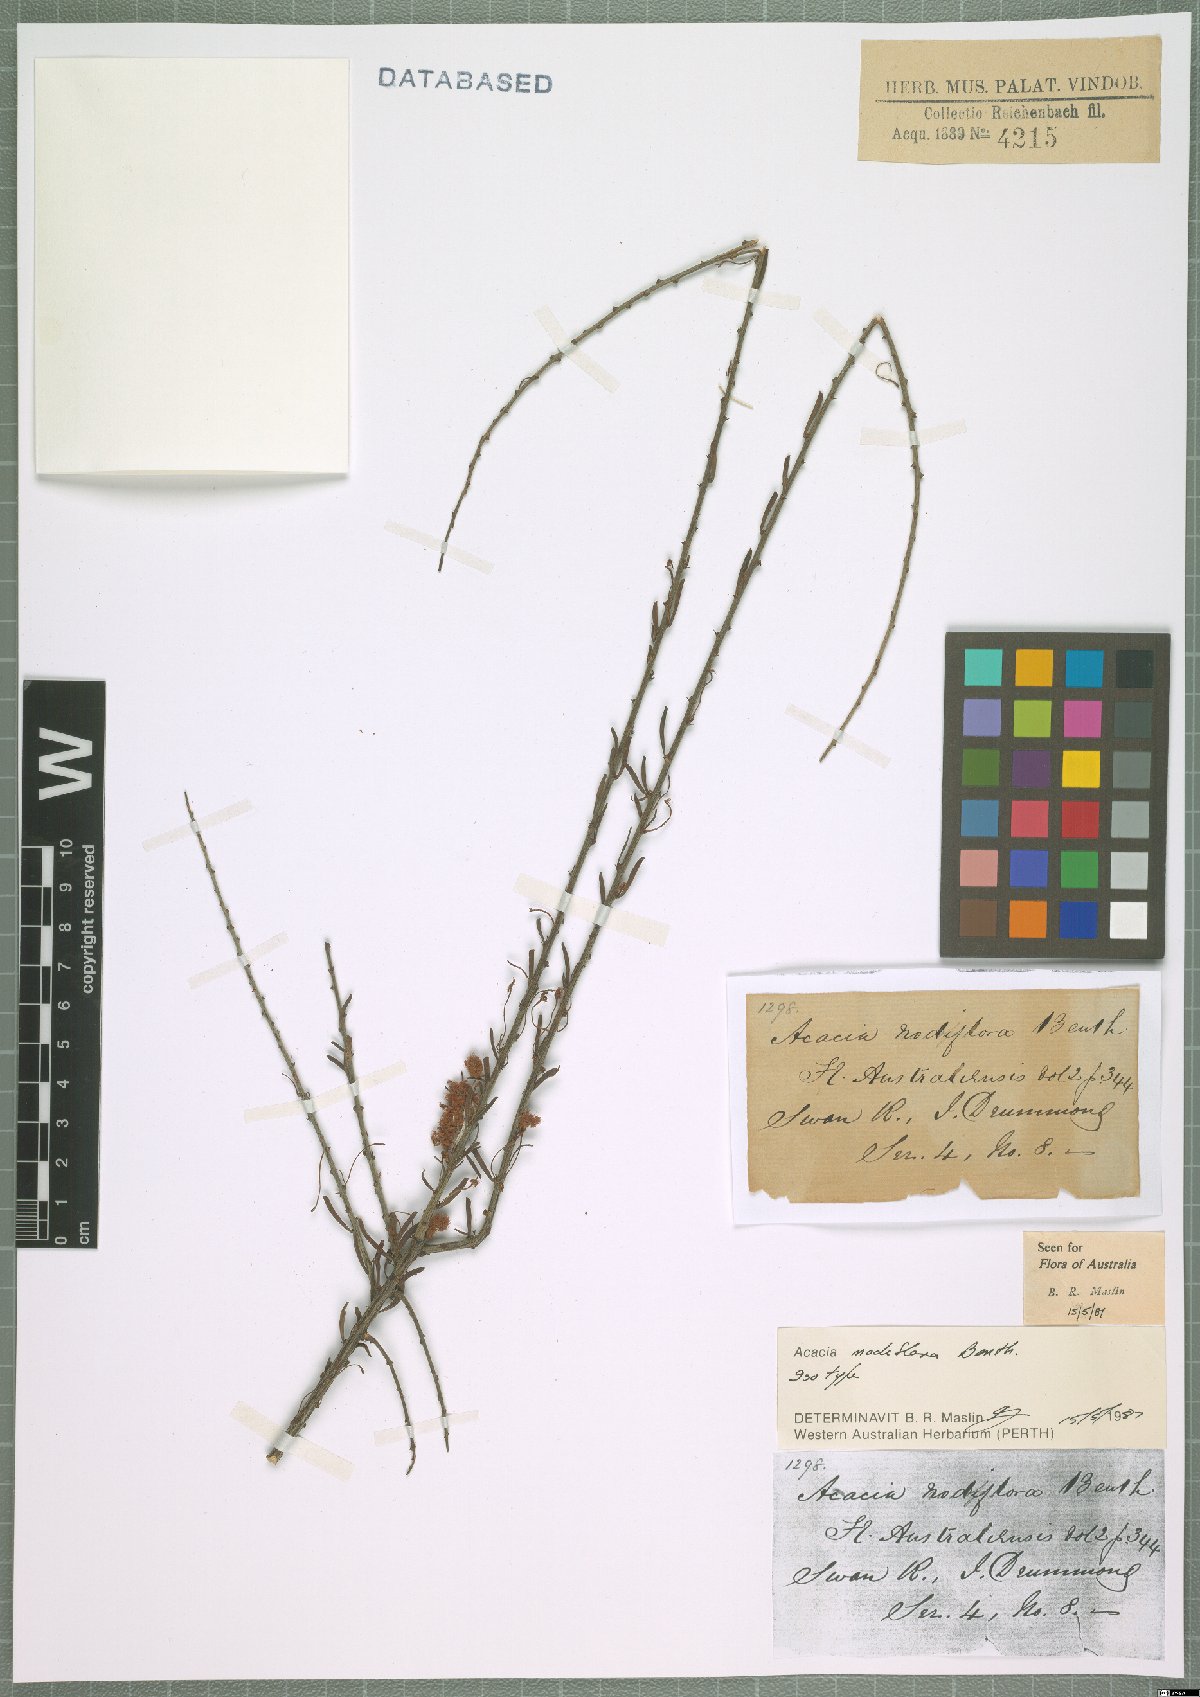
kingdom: Plantae
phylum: Tracheophyta
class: Magnoliopsida
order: Fabales
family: Fabaceae
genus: Acacia
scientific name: Acacia nodiflora
